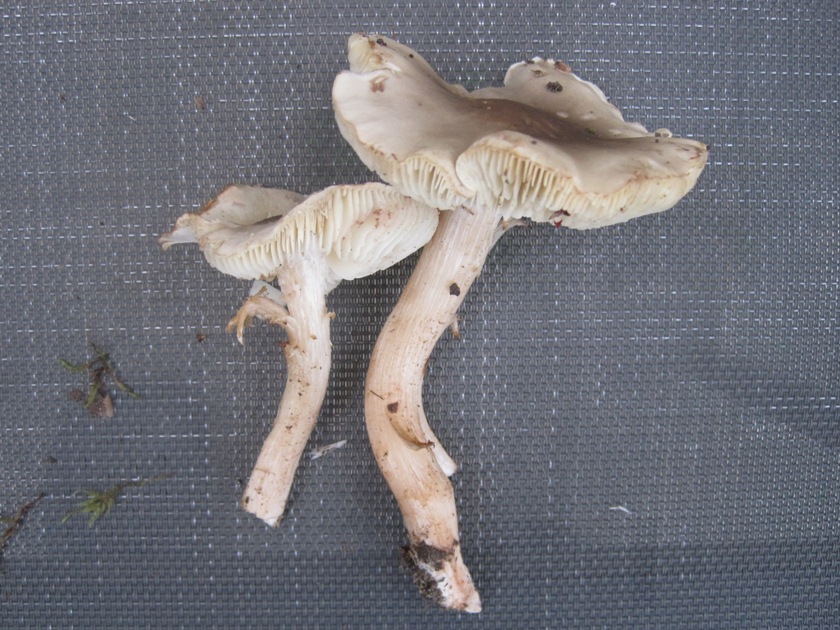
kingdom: Fungi
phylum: Basidiomycota
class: Agaricomycetes
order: Agaricales
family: Tricholomataceae
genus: Tricholoma
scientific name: Tricholoma lascivum
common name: stinkende ridderhat
